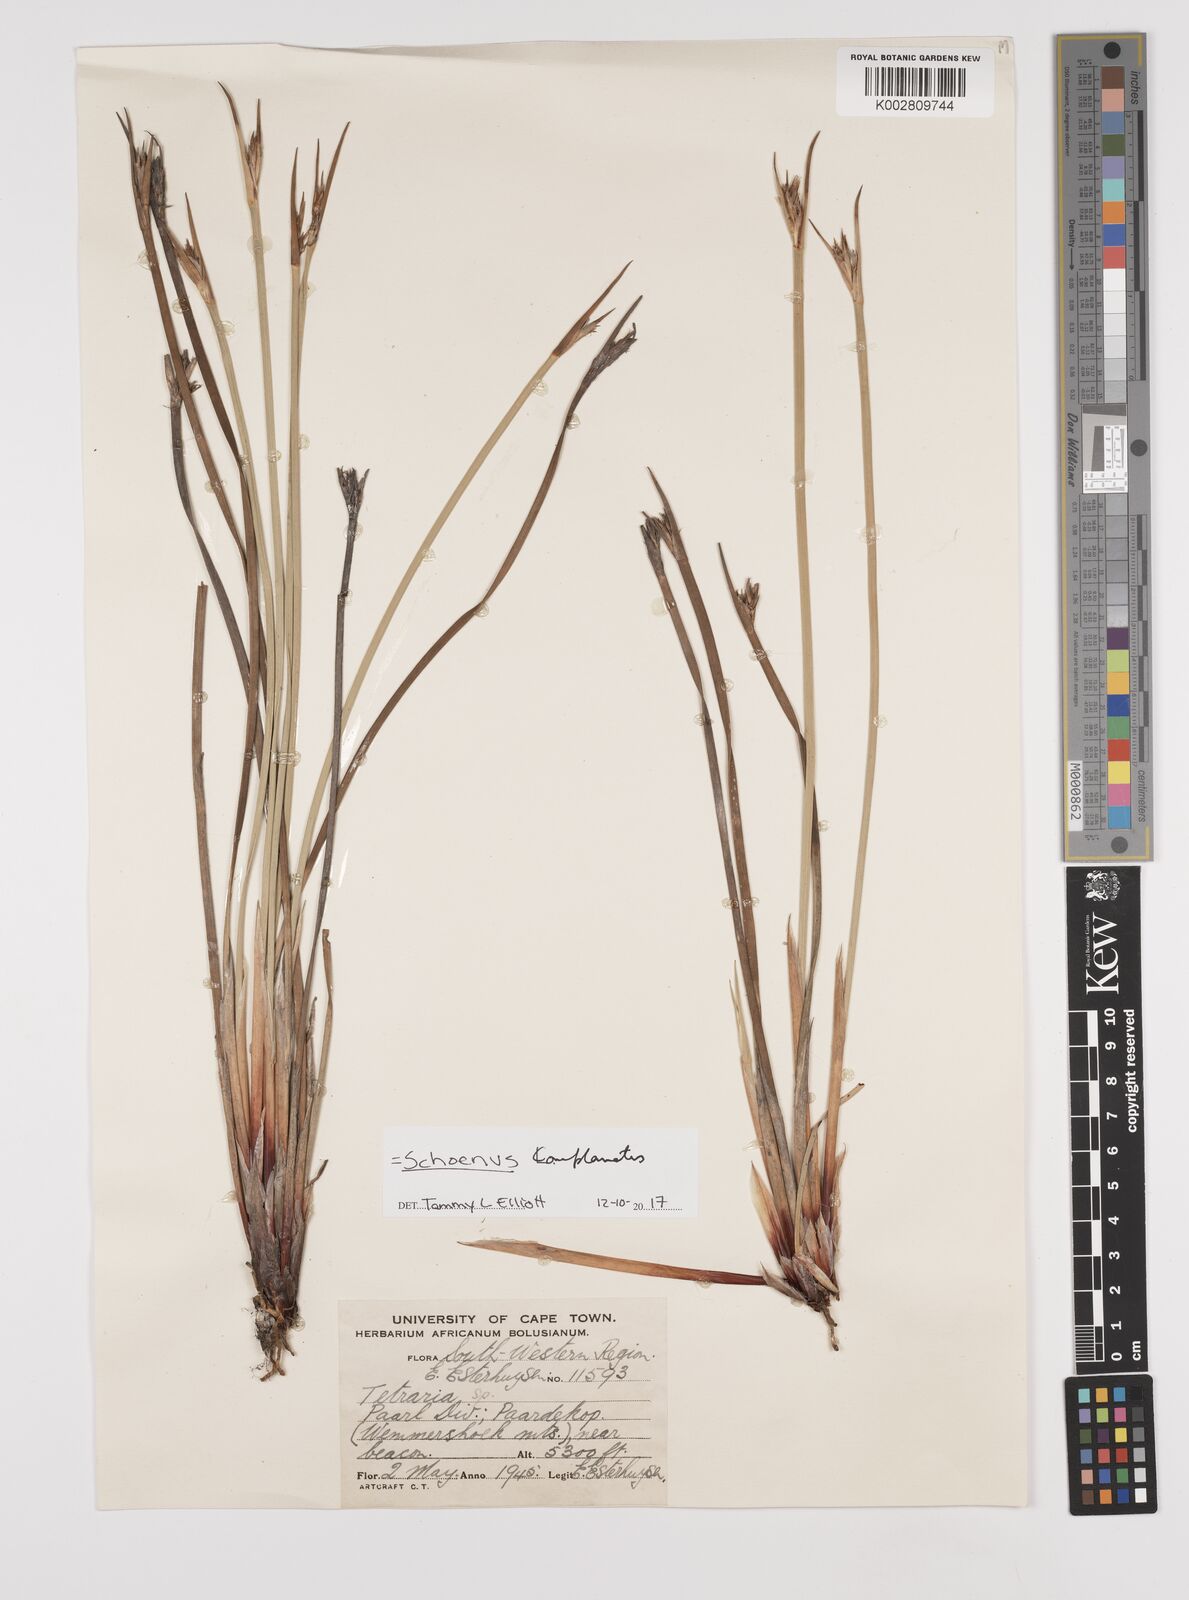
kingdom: Plantae
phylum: Tracheophyta
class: Liliopsida
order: Poales
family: Cyperaceae
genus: Blysmus
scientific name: Blysmus compressus
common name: Flat-sedge
